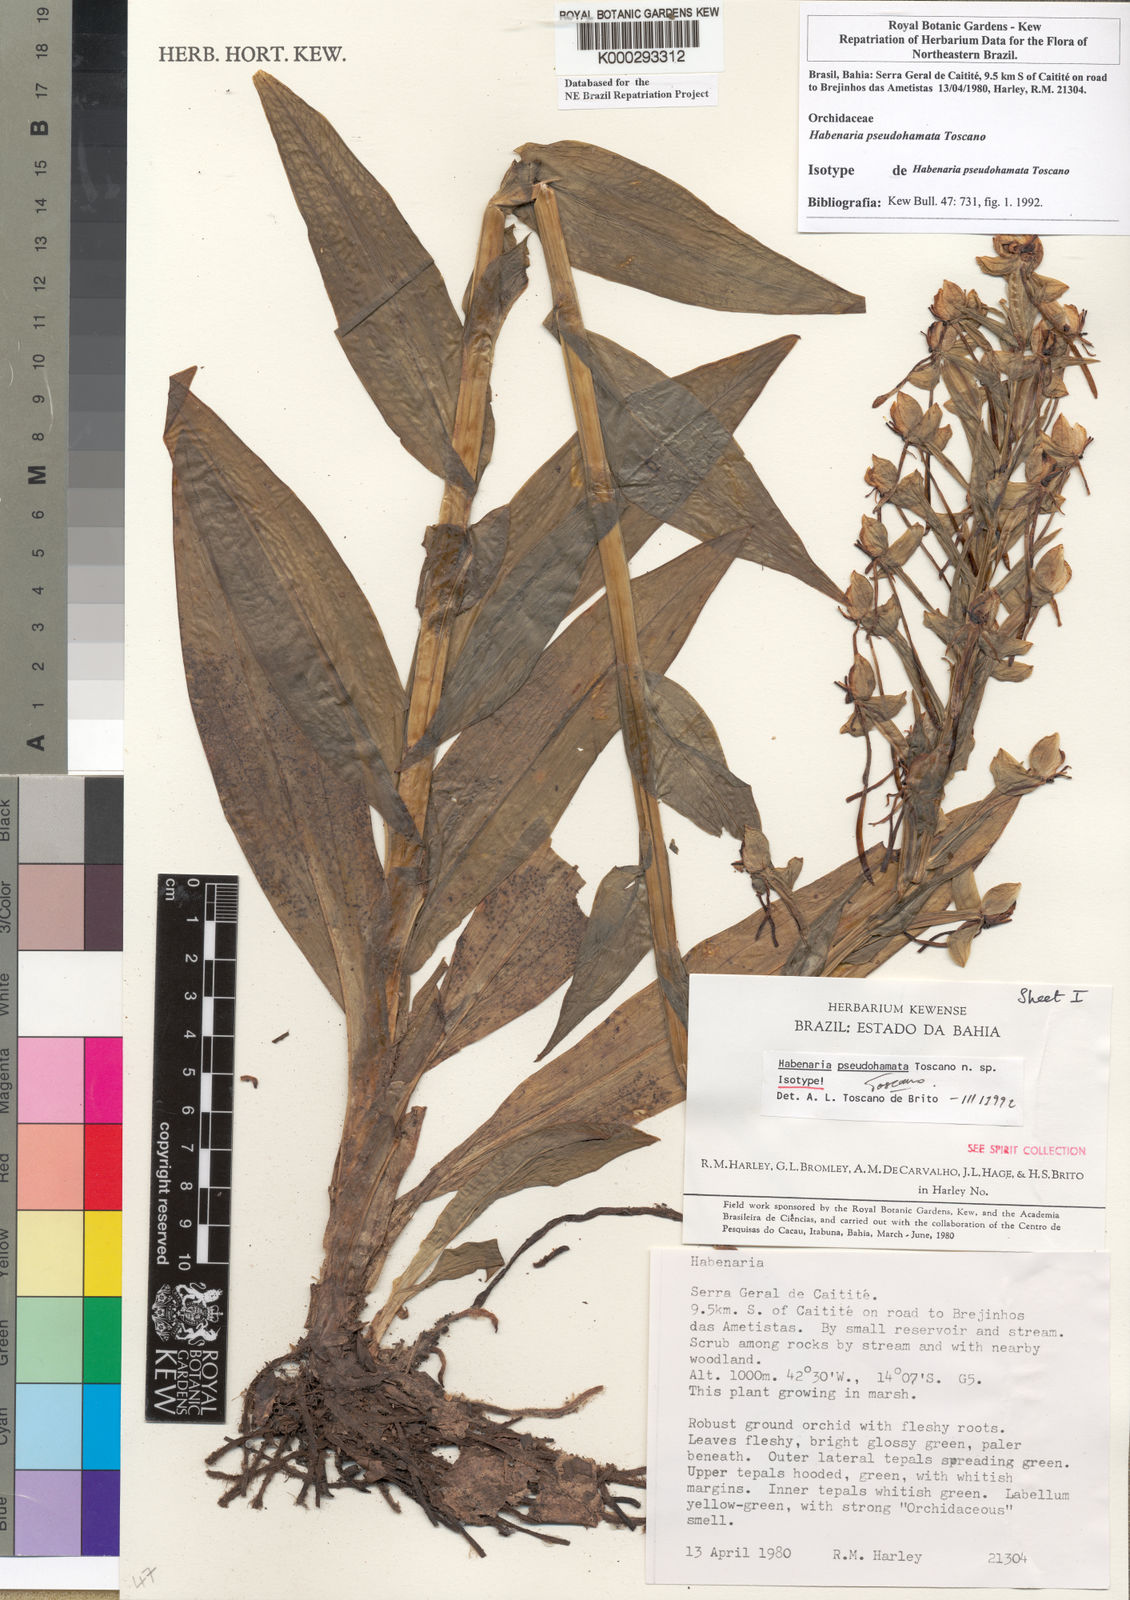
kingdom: Plantae
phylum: Tracheophyta
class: Liliopsida
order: Asparagales
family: Orchidaceae
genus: Habenaria
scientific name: Habenaria pseudohamata
